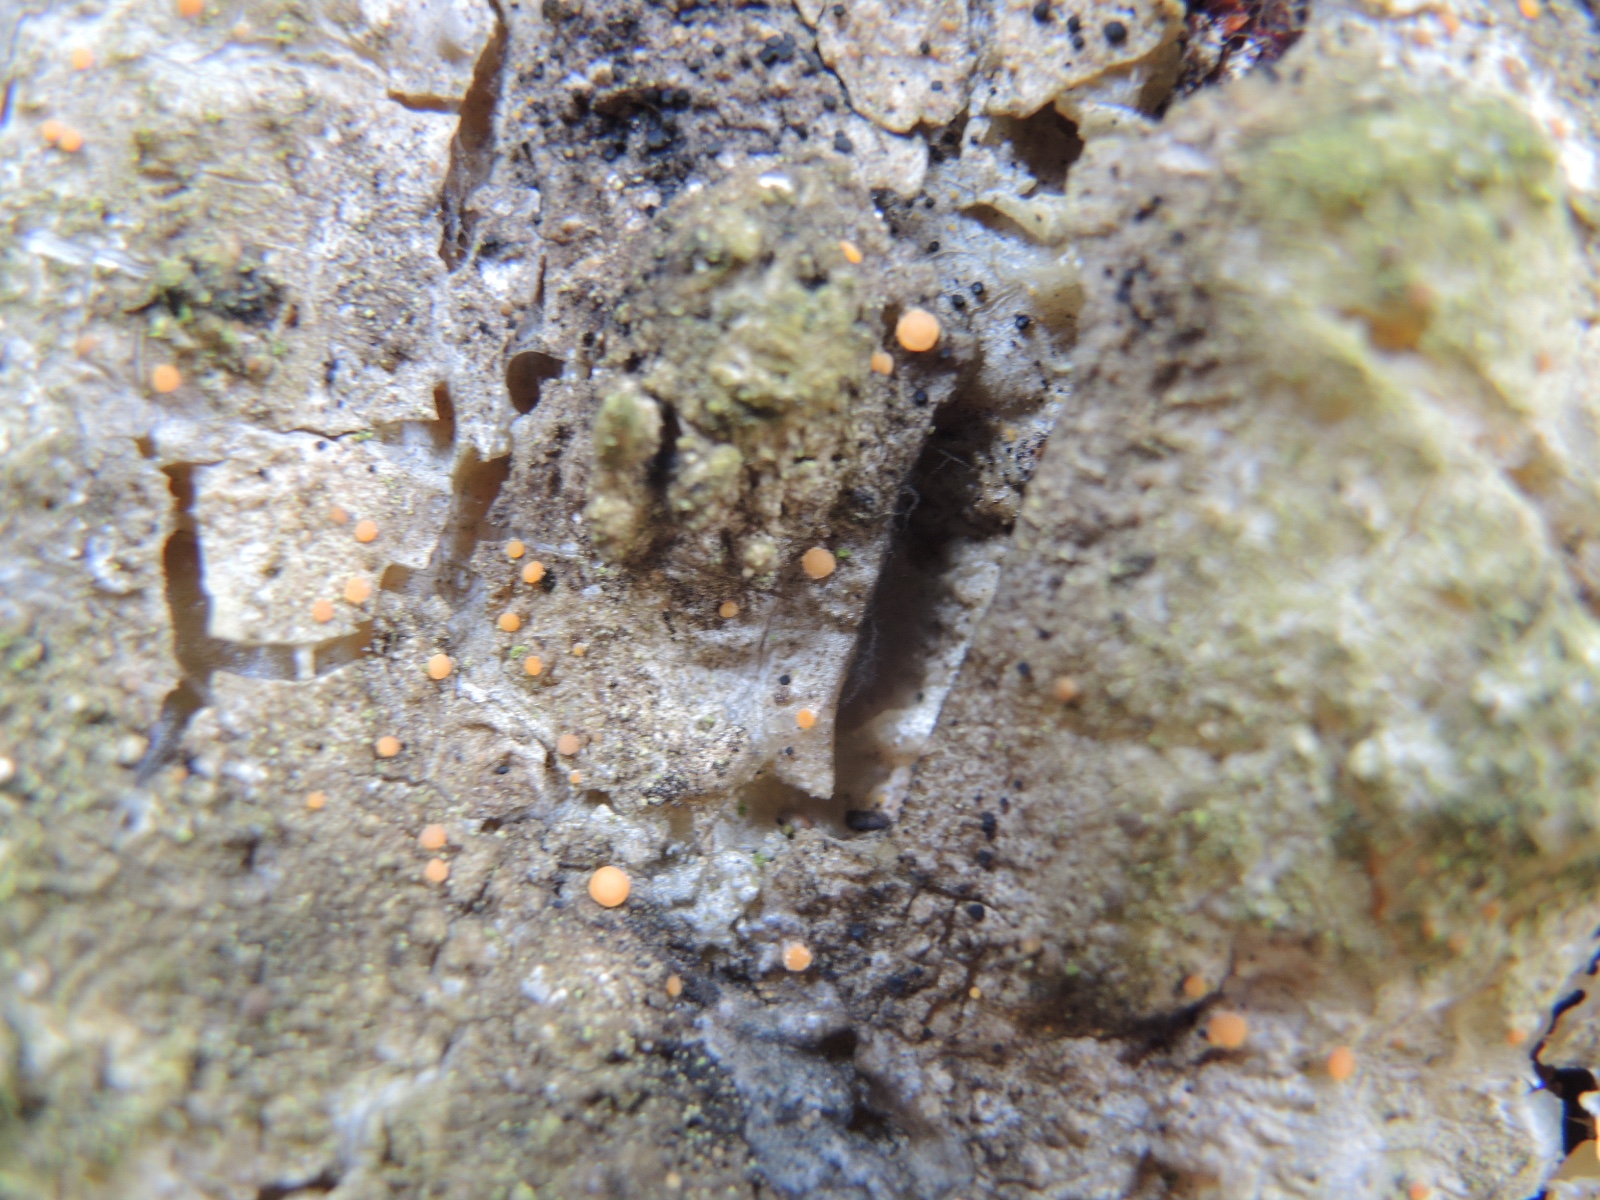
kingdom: Fungi
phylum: Ascomycota
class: Sareomycetes
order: Sareales
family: Sareaceae
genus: Sarea
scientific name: Sarea resinae
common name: orangegul harpiksskive
